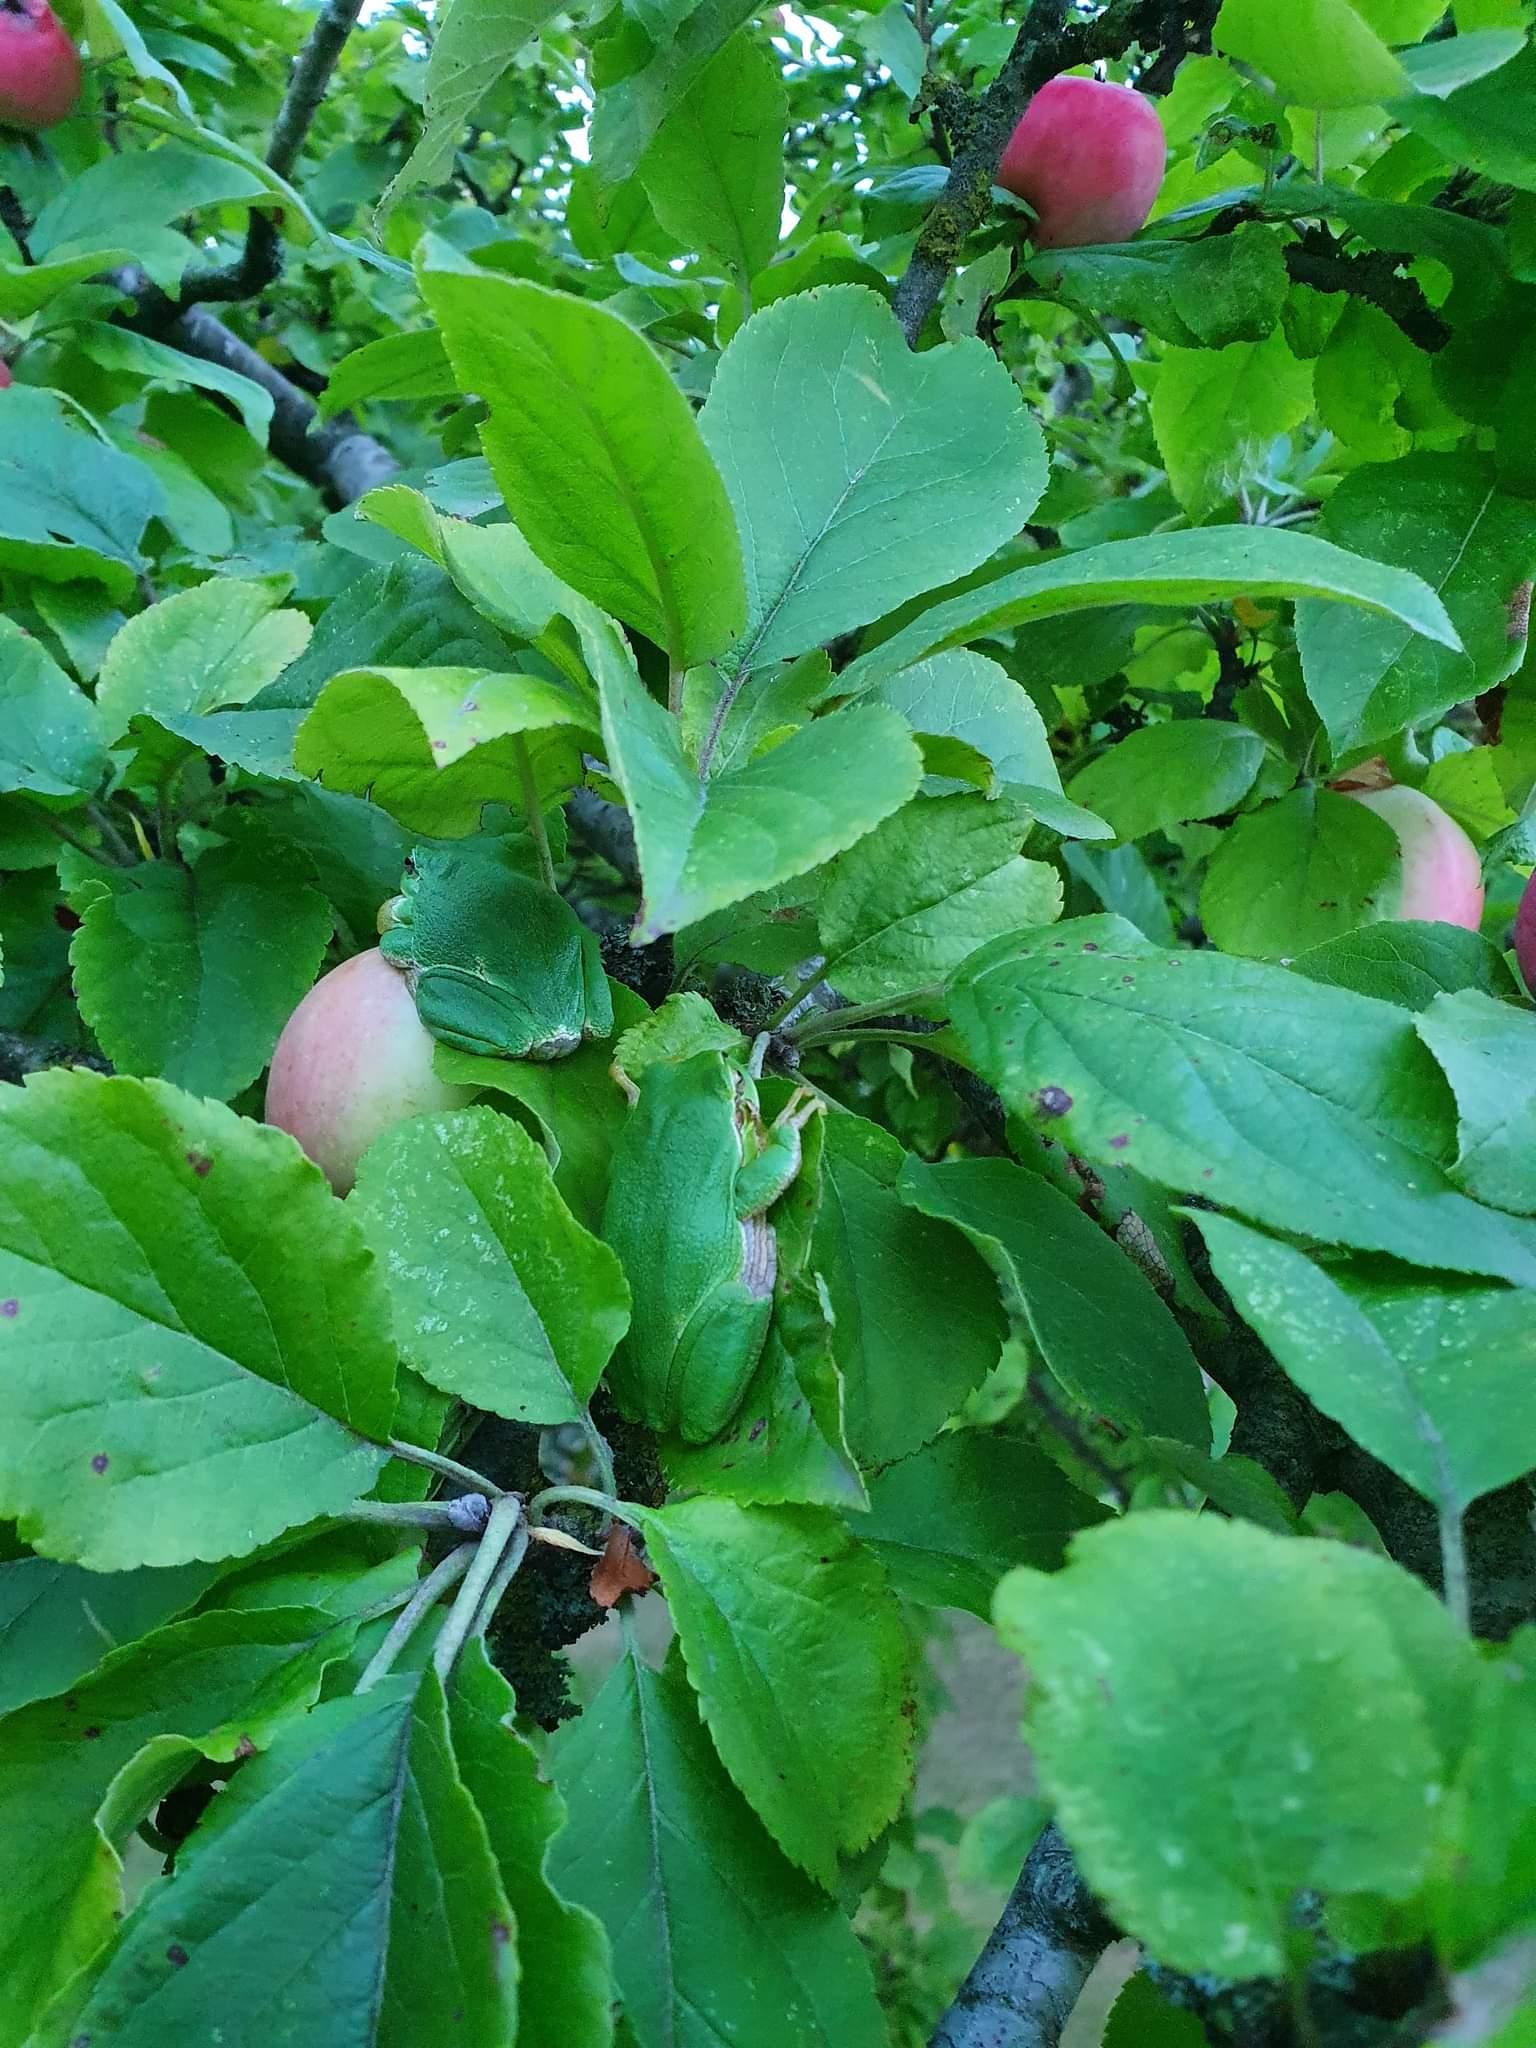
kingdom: Animalia
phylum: Chordata
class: Amphibia
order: Anura
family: Hylidae
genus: Hyla
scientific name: Hyla arborea
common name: Løvfrø
